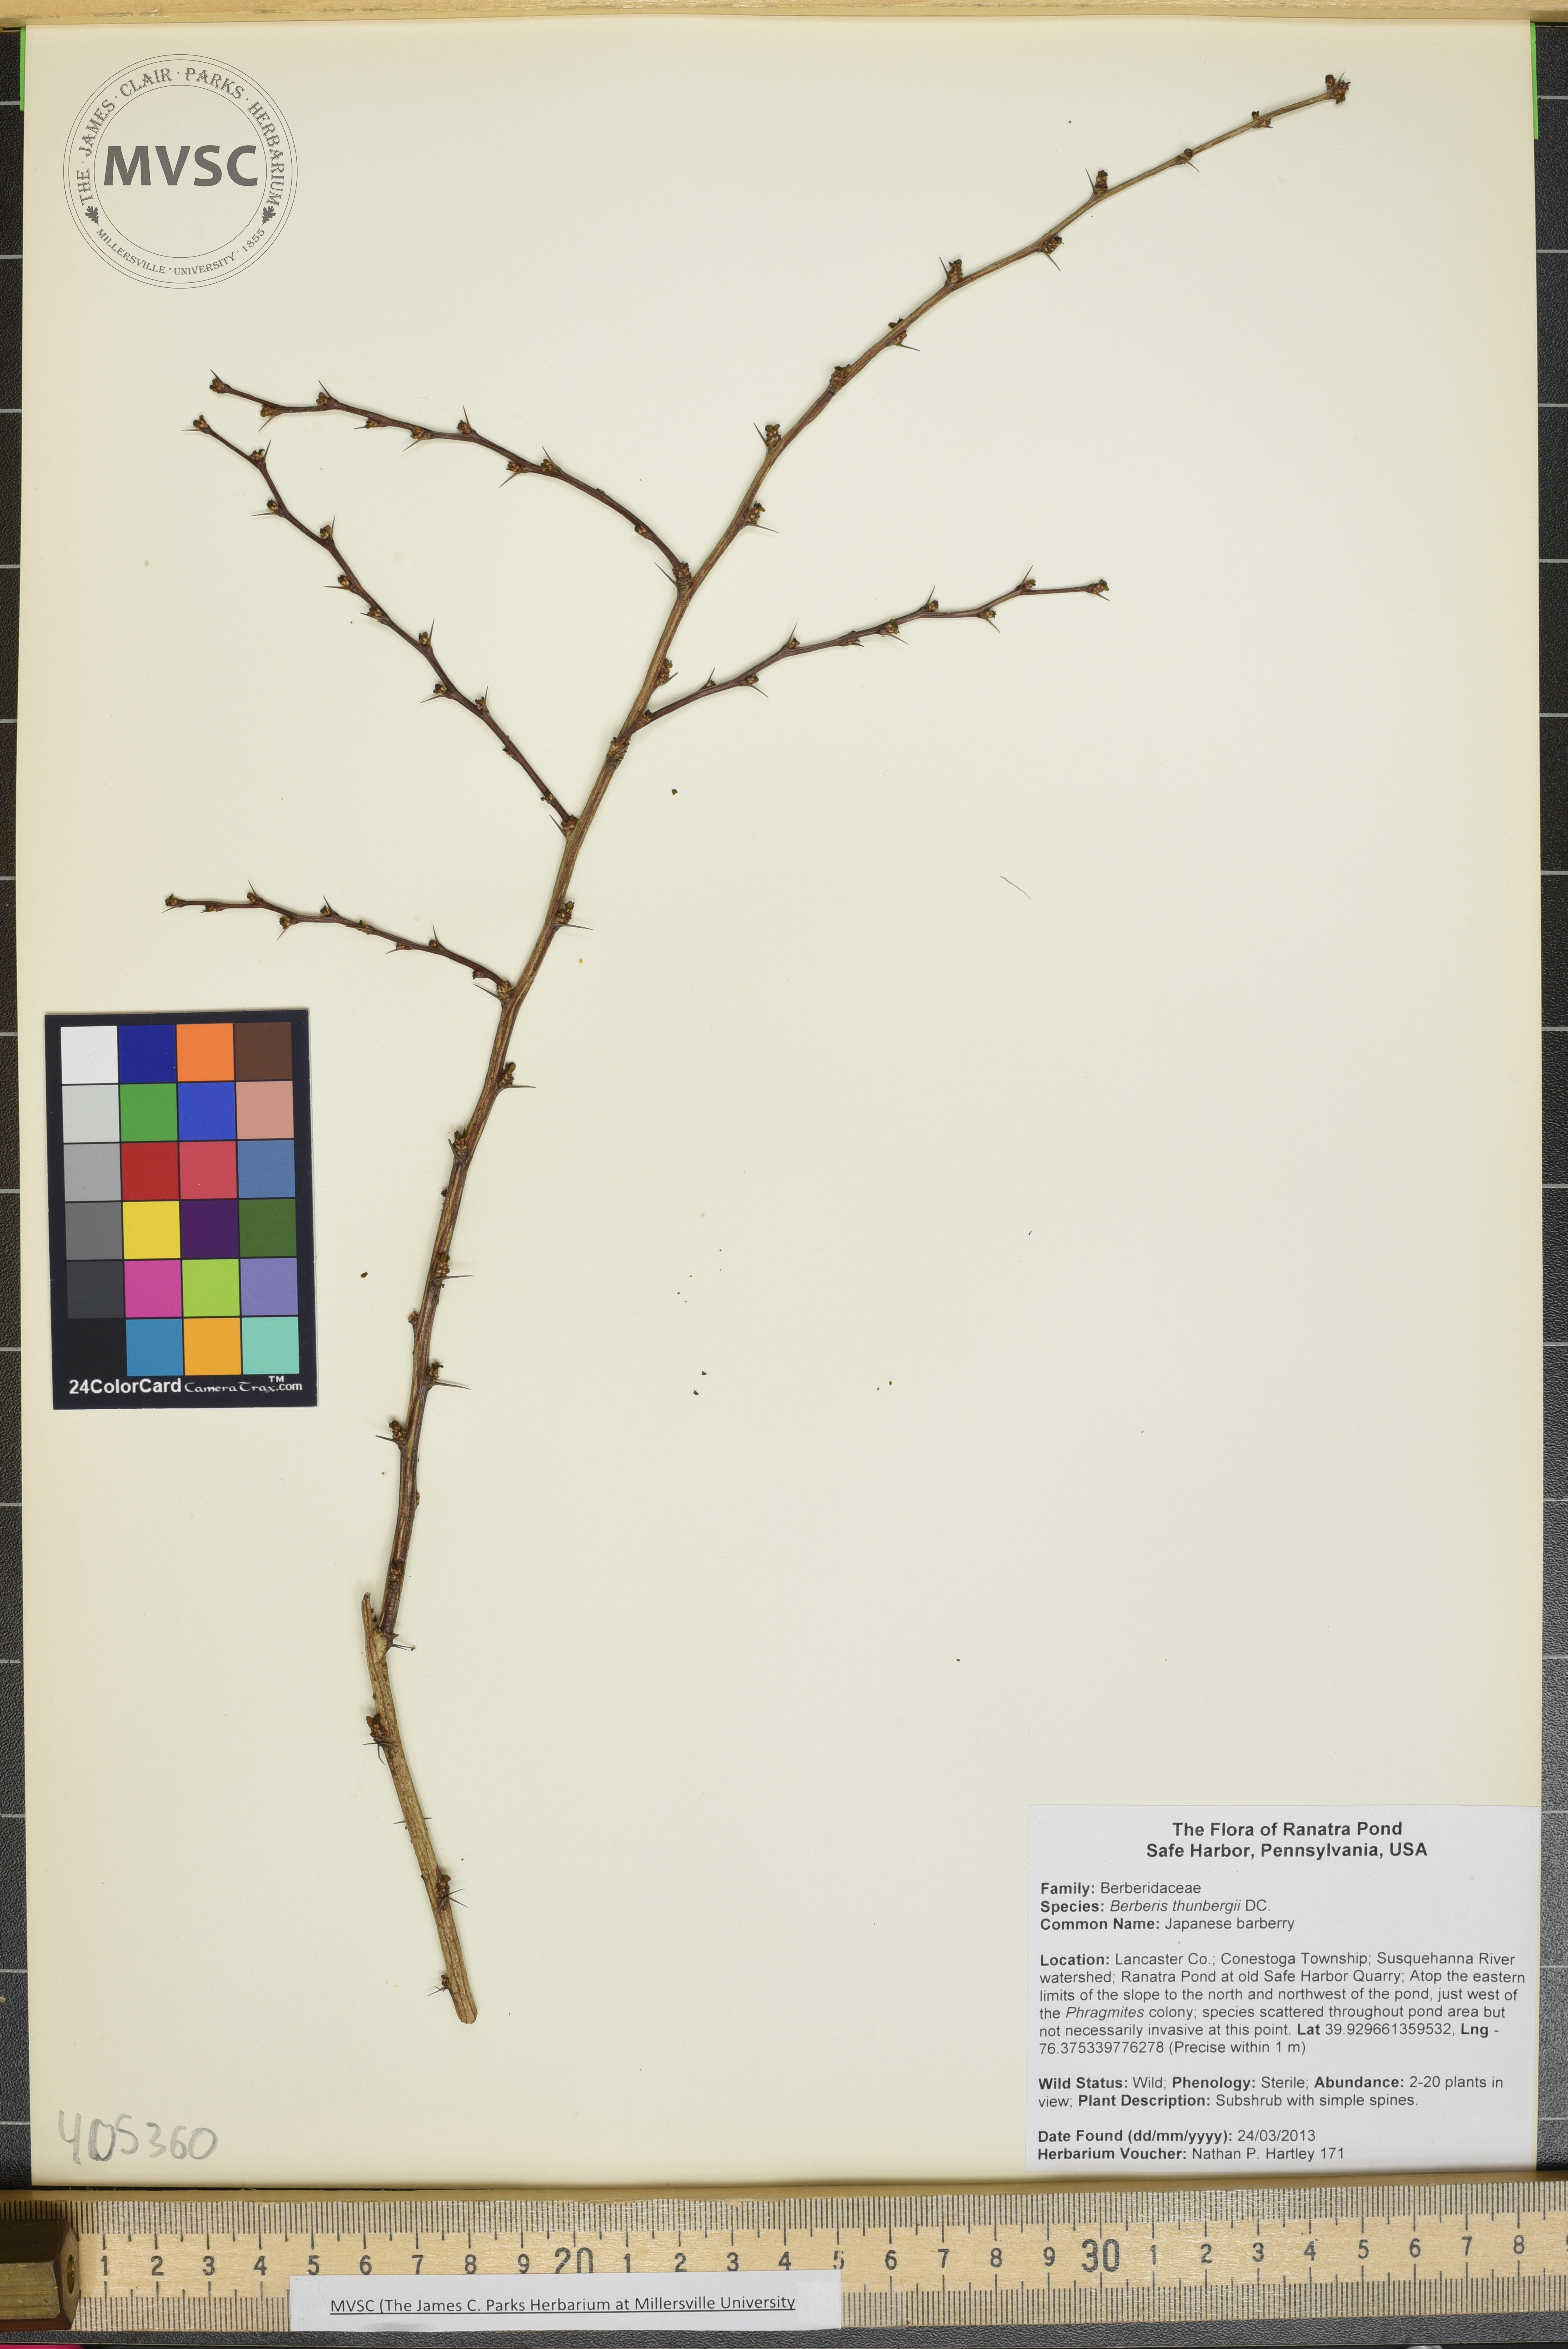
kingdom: Plantae
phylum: Tracheophyta
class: Magnoliopsida
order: Ranunculales
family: Berberidaceae
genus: Berberis
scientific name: Berberis thunbergii
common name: Japanese barberry
